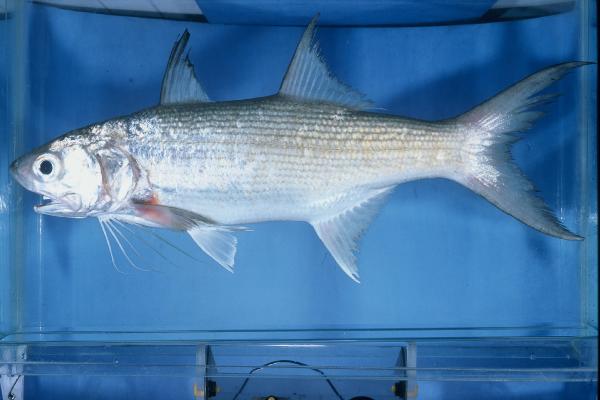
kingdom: Animalia
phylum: Chordata
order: Perciformes
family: Polynemidae
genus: Polydactylus
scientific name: Polydactylus plebeius
